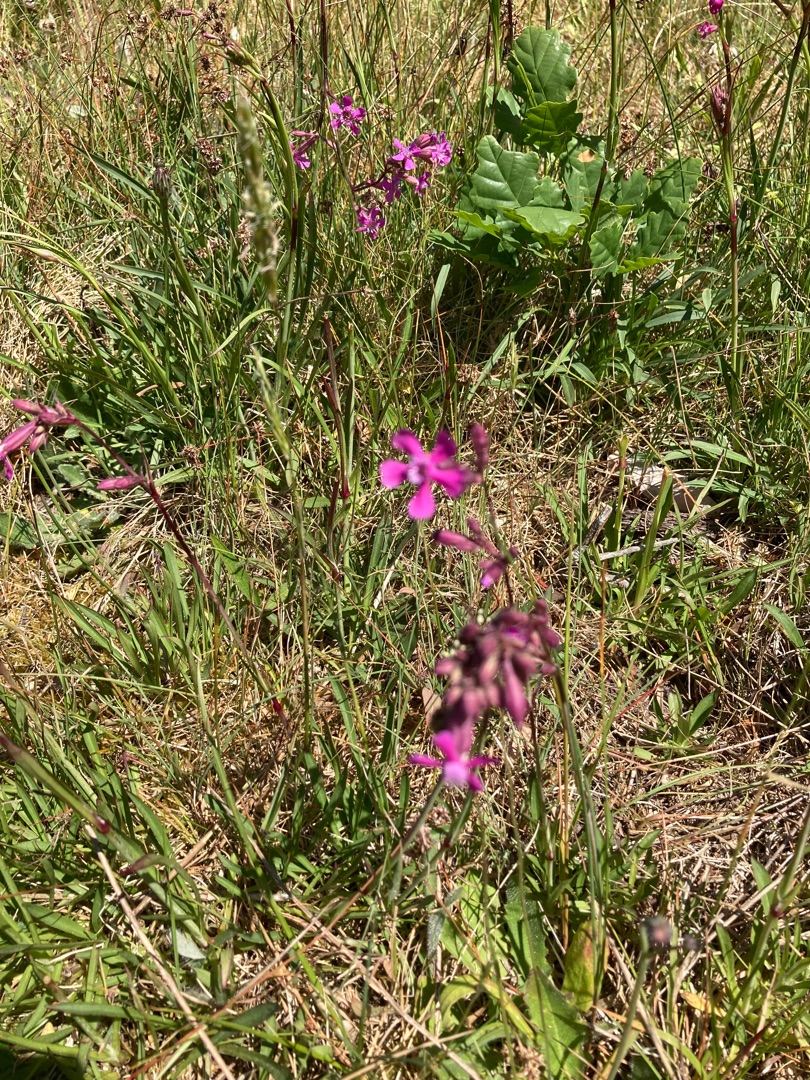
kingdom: Plantae
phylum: Tracheophyta
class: Magnoliopsida
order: Caryophyllales
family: Caryophyllaceae
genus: Viscaria
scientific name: Viscaria vulgaris
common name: Tjærenellike
